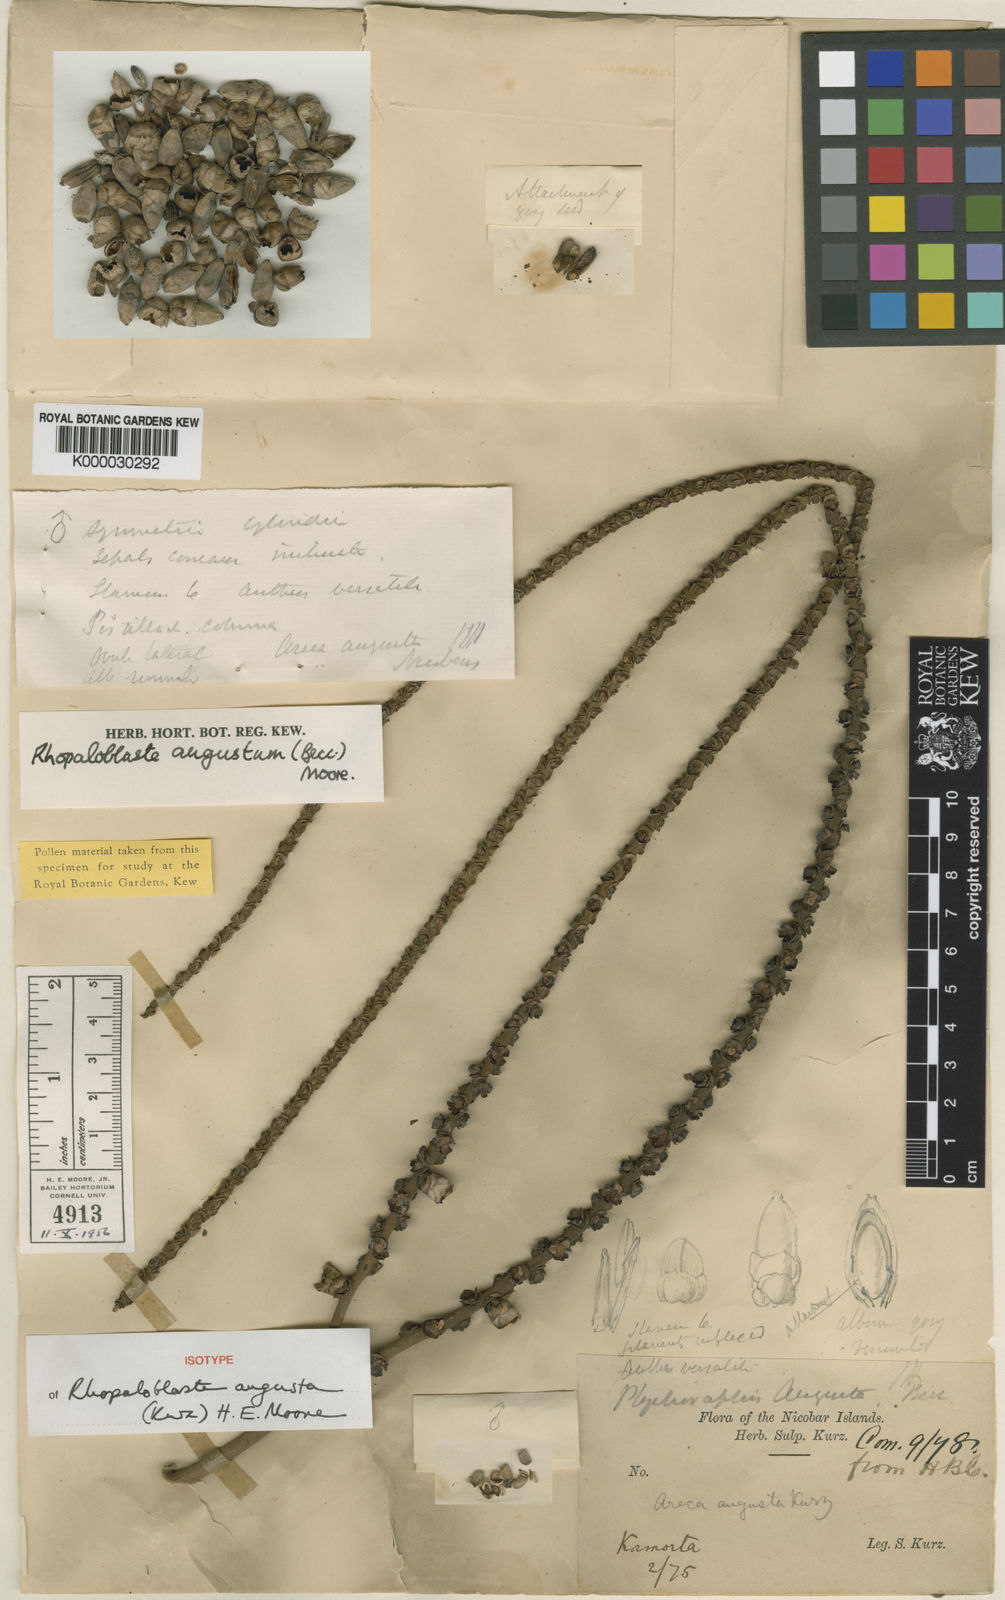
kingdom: Plantae
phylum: Tracheophyta
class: Liliopsida
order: Arecales
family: Arecaceae
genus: Rhopaloblaste
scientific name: Rhopaloblaste augusta
